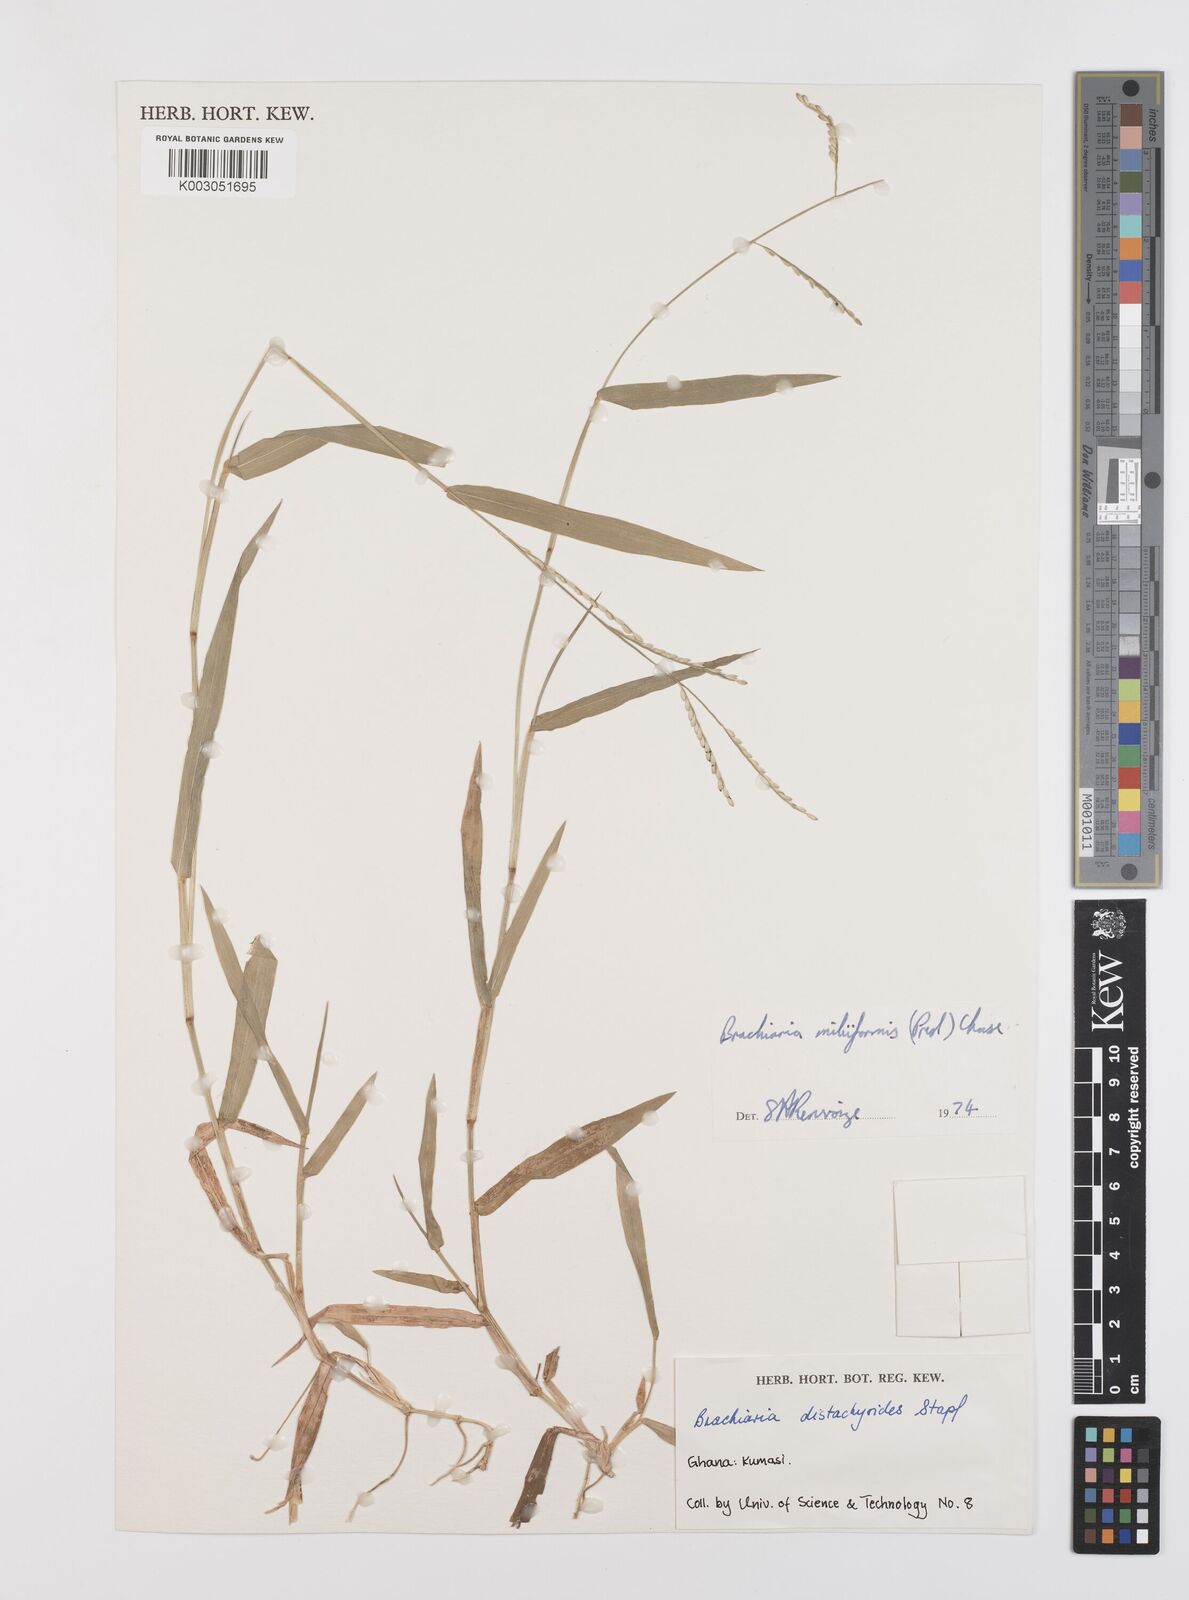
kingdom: Plantae
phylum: Tracheophyta
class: Liliopsida
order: Poales
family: Poaceae
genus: Urochloa
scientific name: Urochloa subquadripara
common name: Armgrass millet
